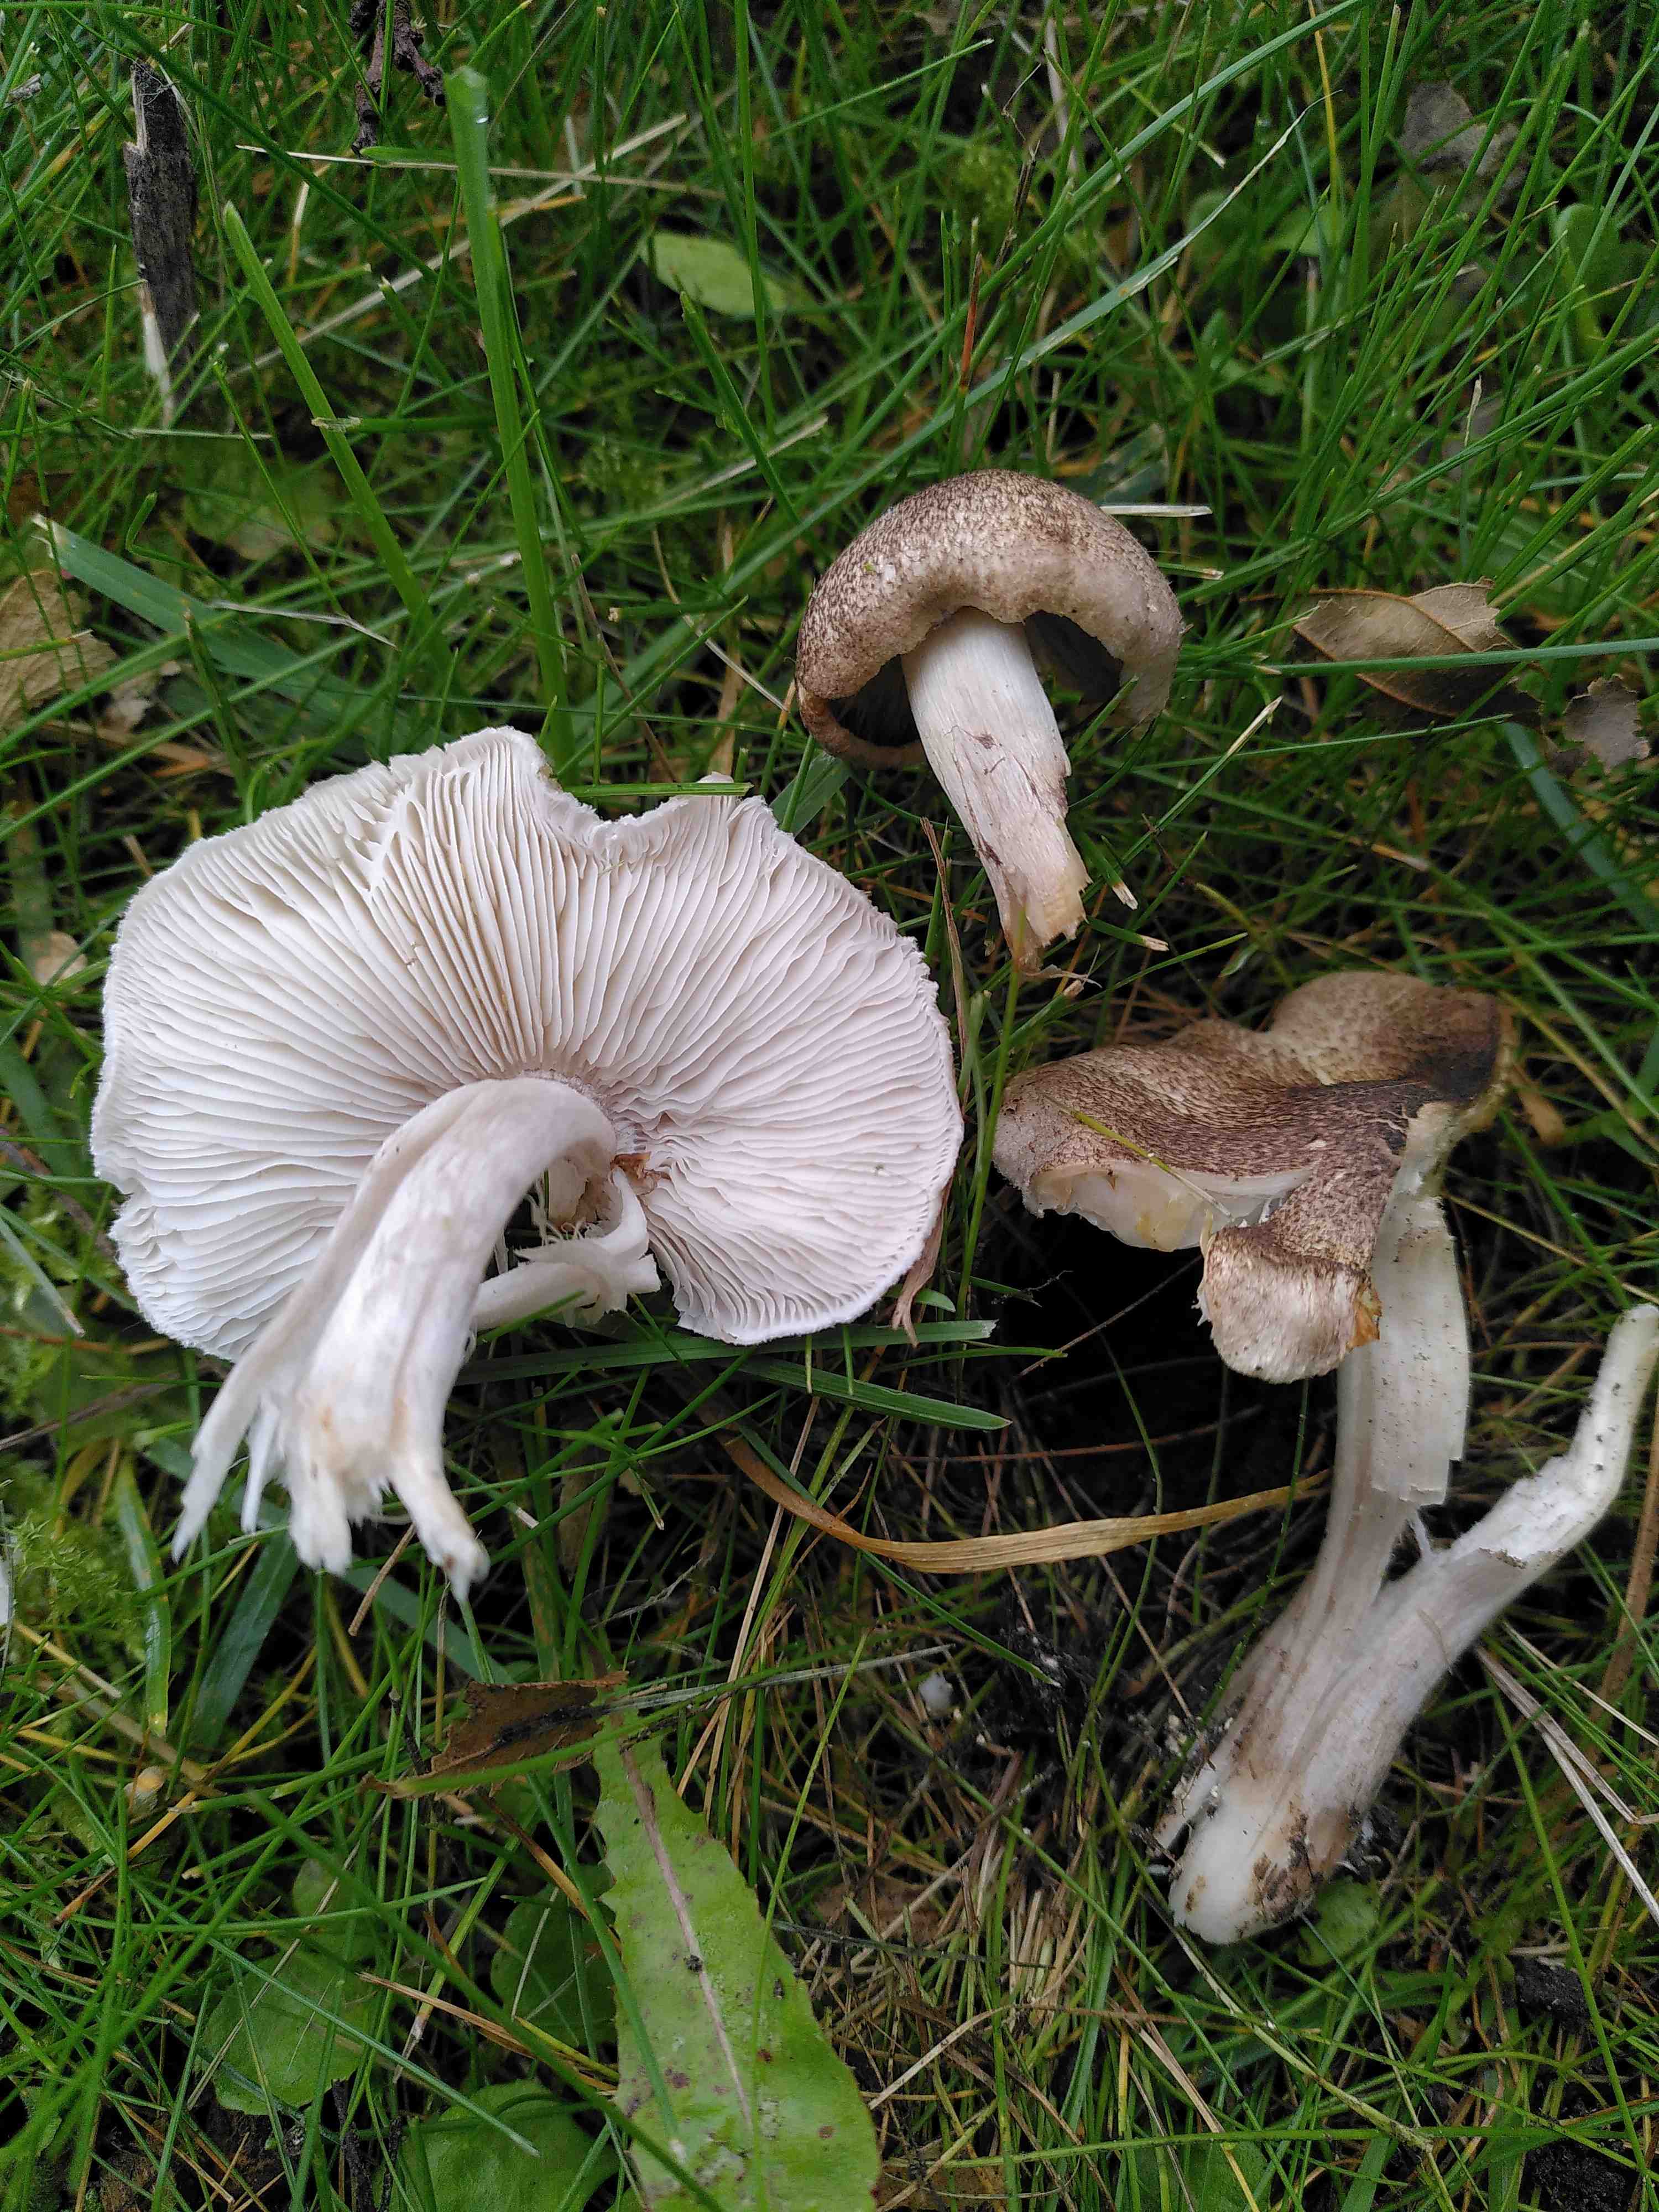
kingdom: Fungi
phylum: Basidiomycota
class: Agaricomycetes
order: Agaricales
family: Tricholomataceae
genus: Tricholoma
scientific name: Tricholoma scalpturatum
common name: gulplettet ridderhat
